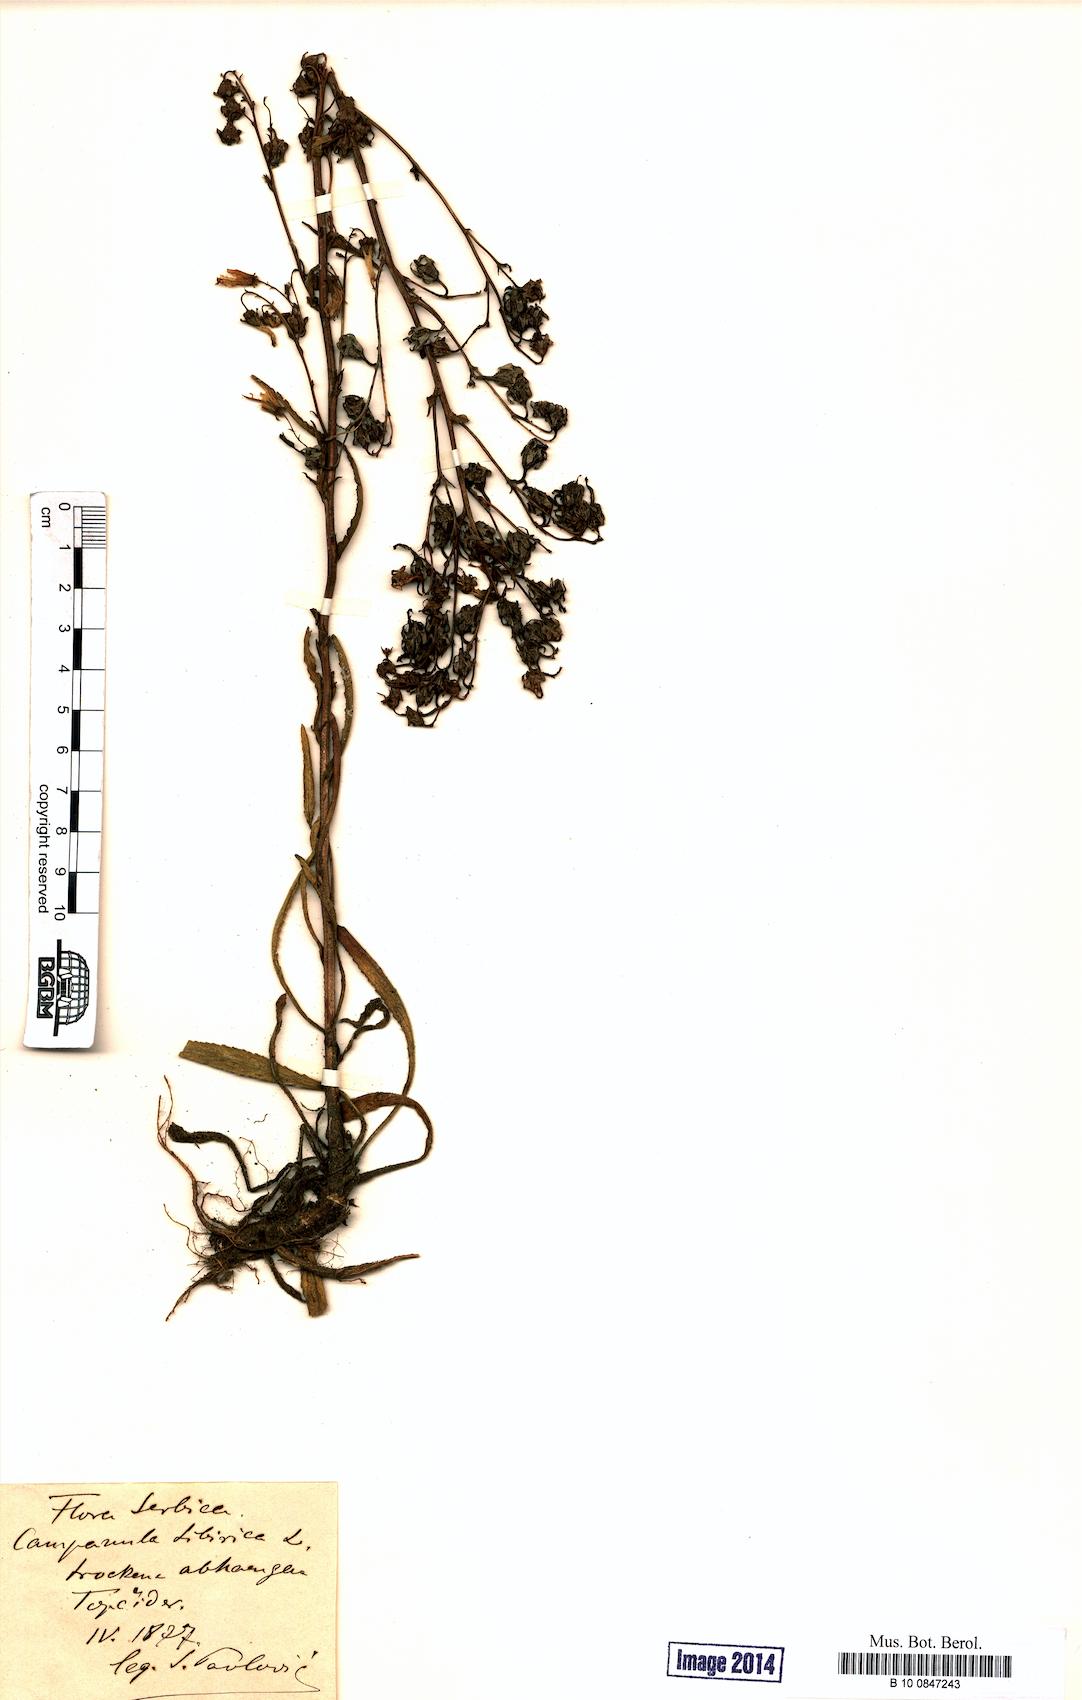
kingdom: Plantae
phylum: Tracheophyta
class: Magnoliopsida
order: Asterales
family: Campanulaceae
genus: Campanula
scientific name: Campanula sibirica
